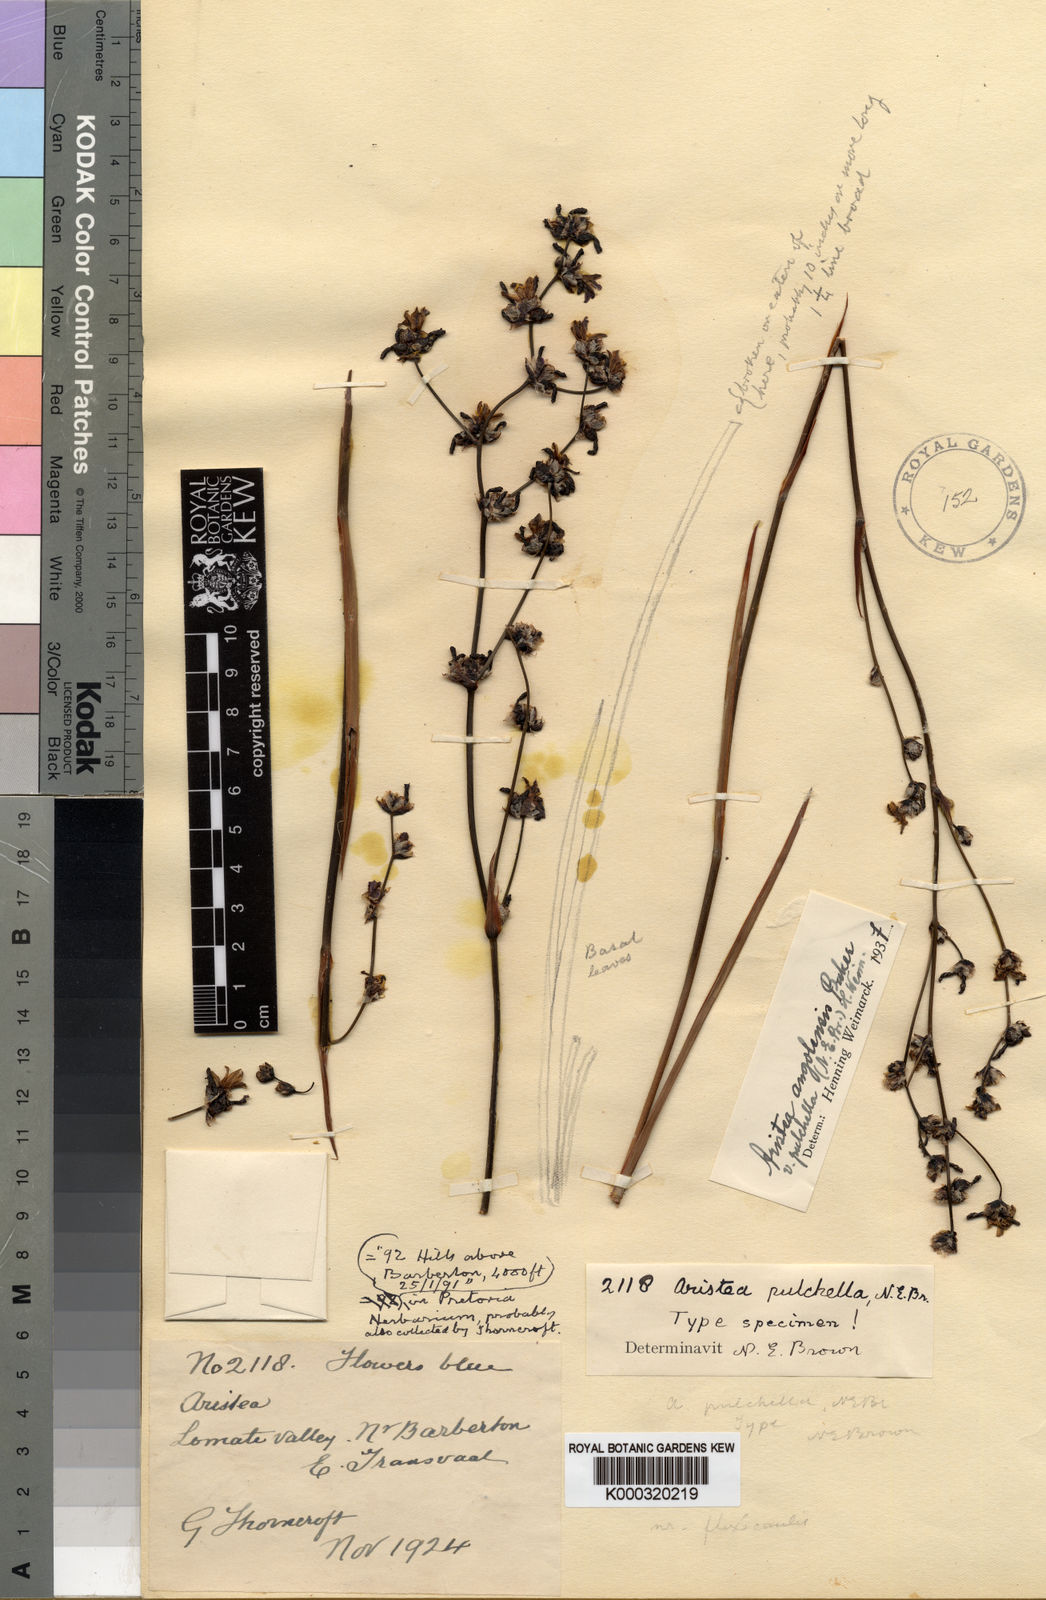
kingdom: Plantae
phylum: Tracheophyta
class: Liliopsida
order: Asparagales
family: Iridaceae
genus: Aristea
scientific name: Aristea flexicaulis
